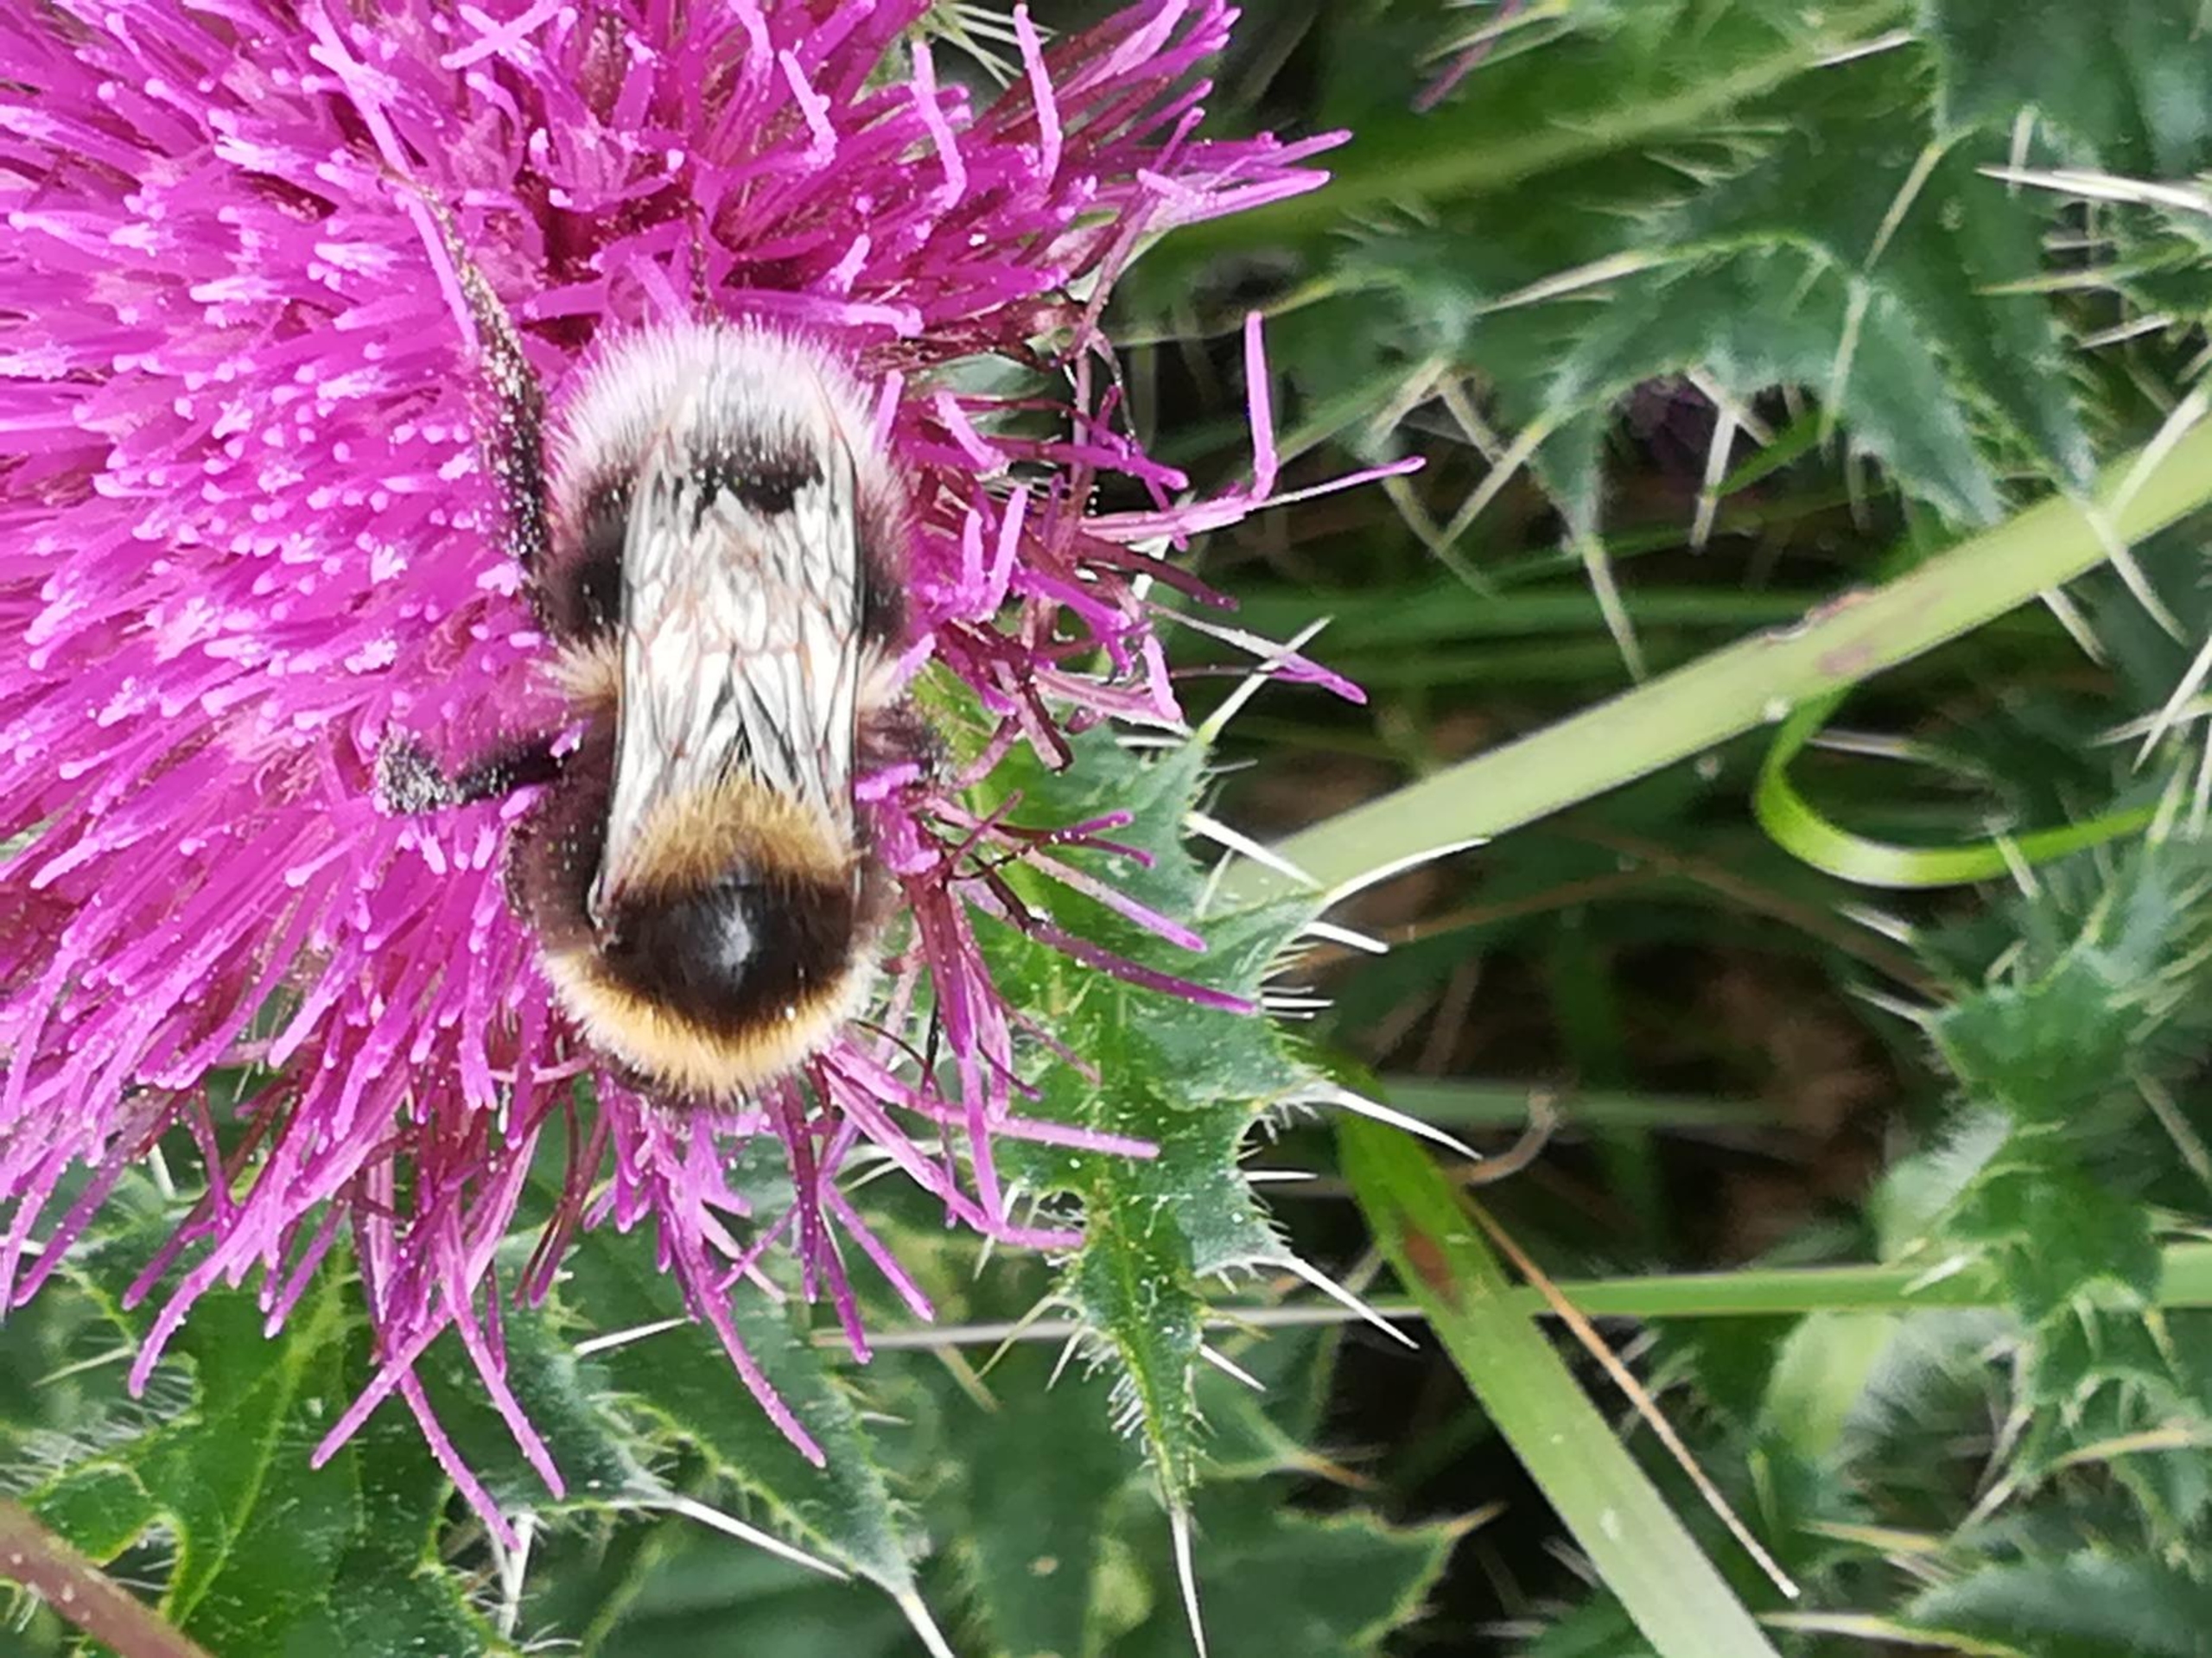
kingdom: Animalia
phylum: Arthropoda
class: Insecta
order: Hymenoptera
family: Apidae
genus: Bombus
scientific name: Bombus hortorum
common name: Havehumle
